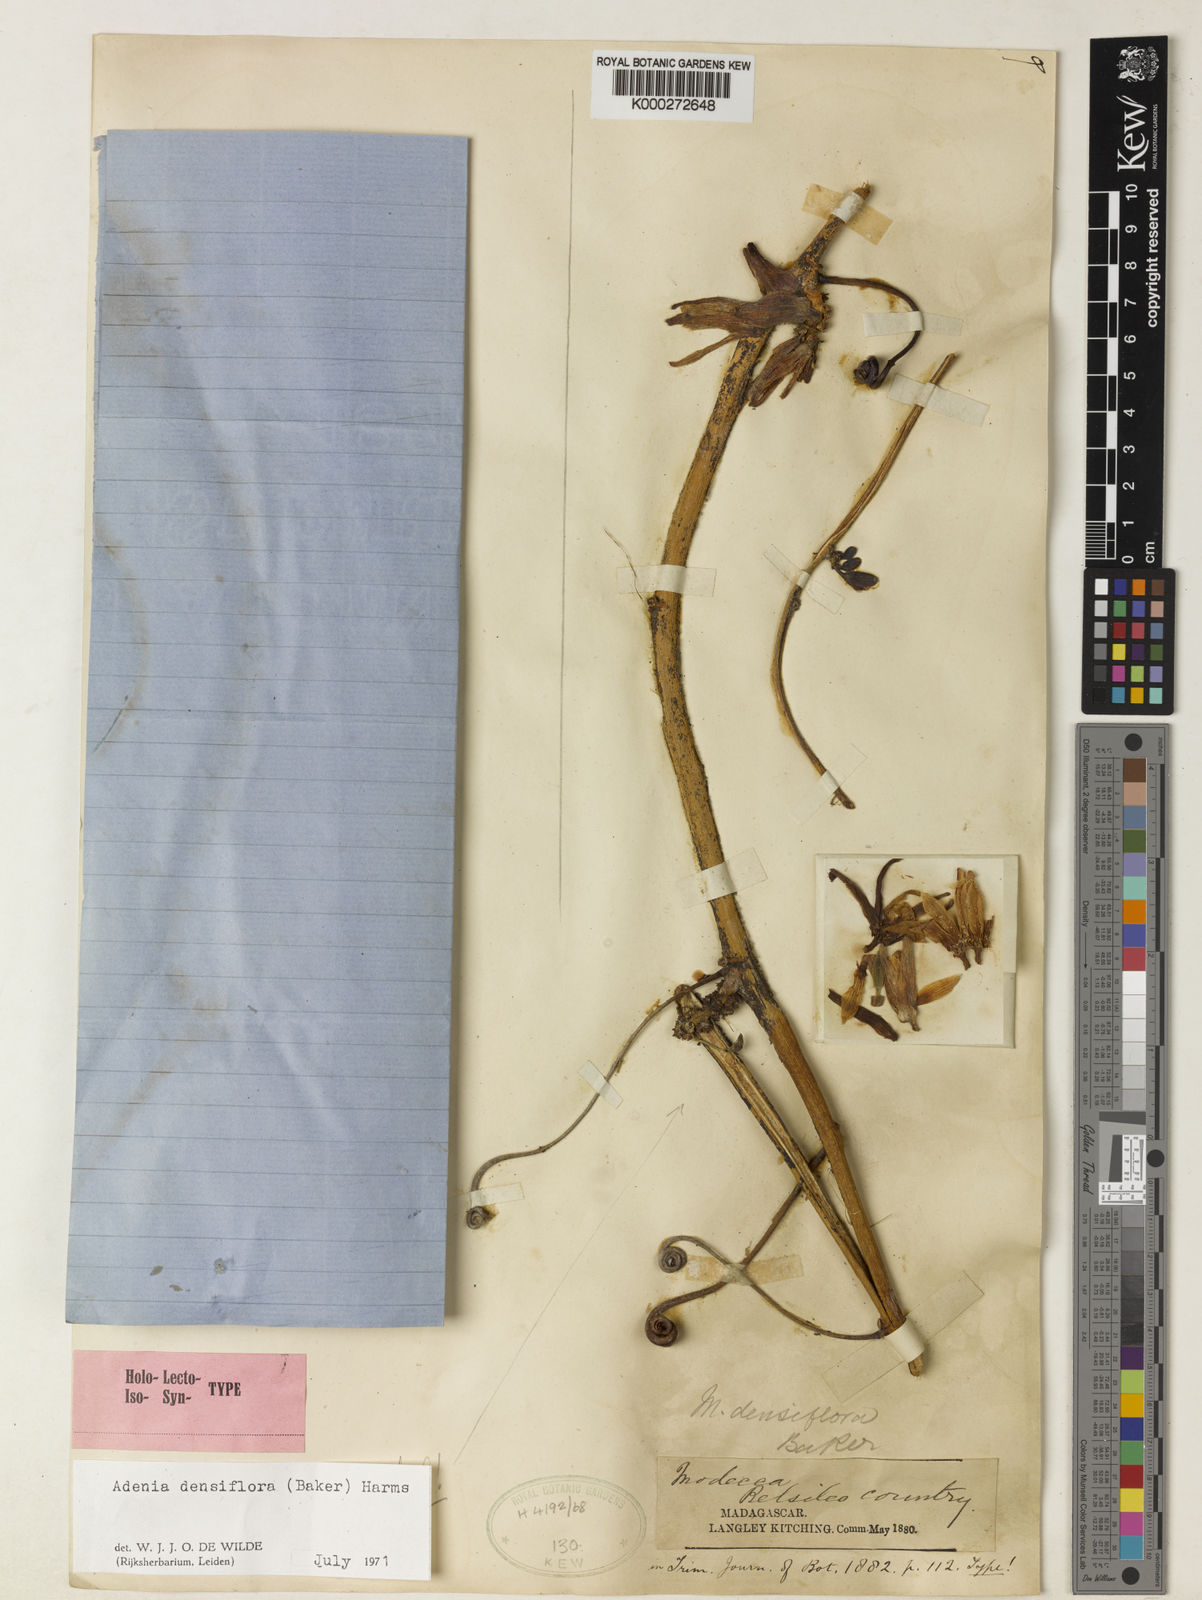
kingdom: Plantae
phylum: Tracheophyta
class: Magnoliopsida
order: Malpighiales
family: Passifloraceae
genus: Adenia
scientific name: Adenia densiflora
